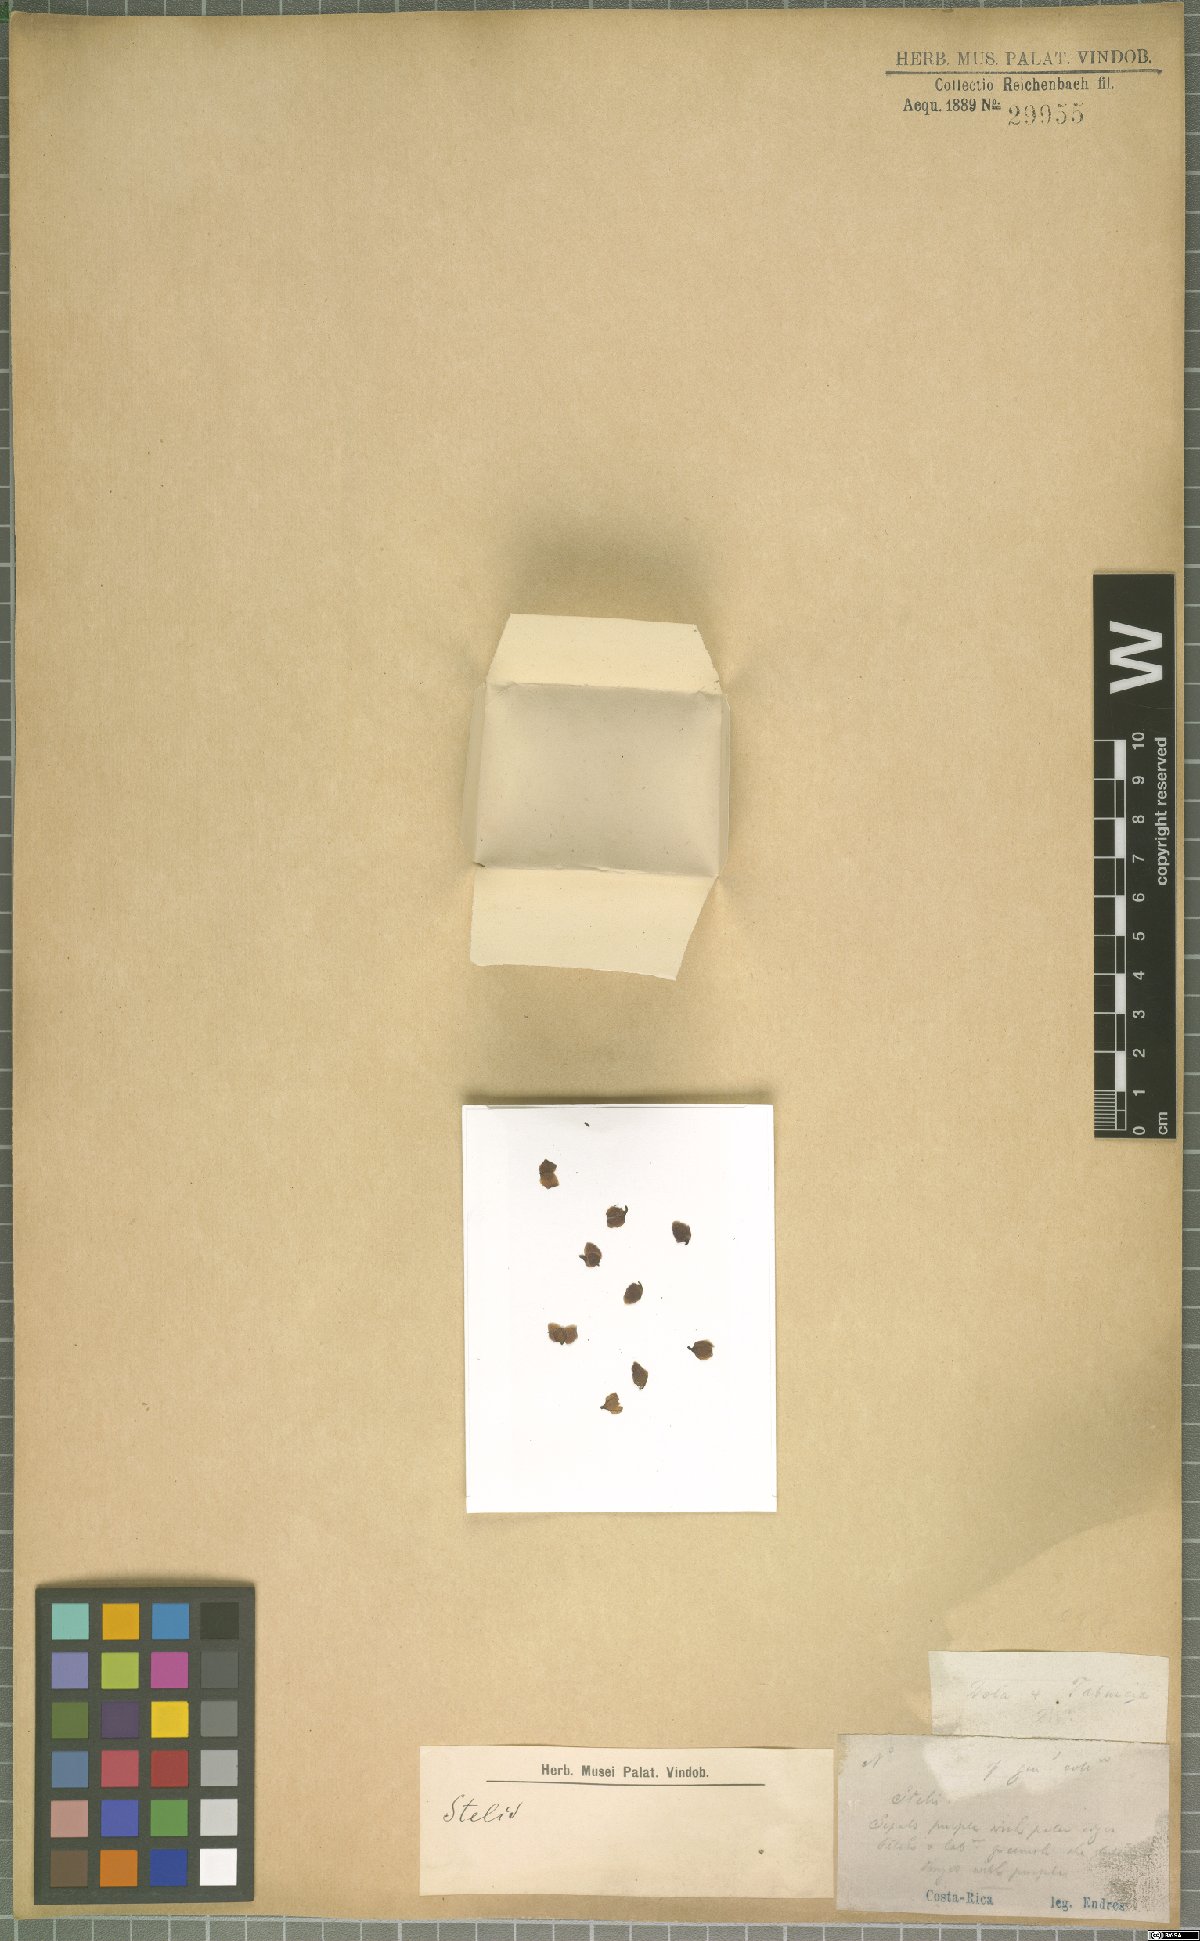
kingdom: Plantae
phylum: Tracheophyta
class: Liliopsida
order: Asparagales
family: Orchidaceae
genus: Stelis
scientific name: Stelis
